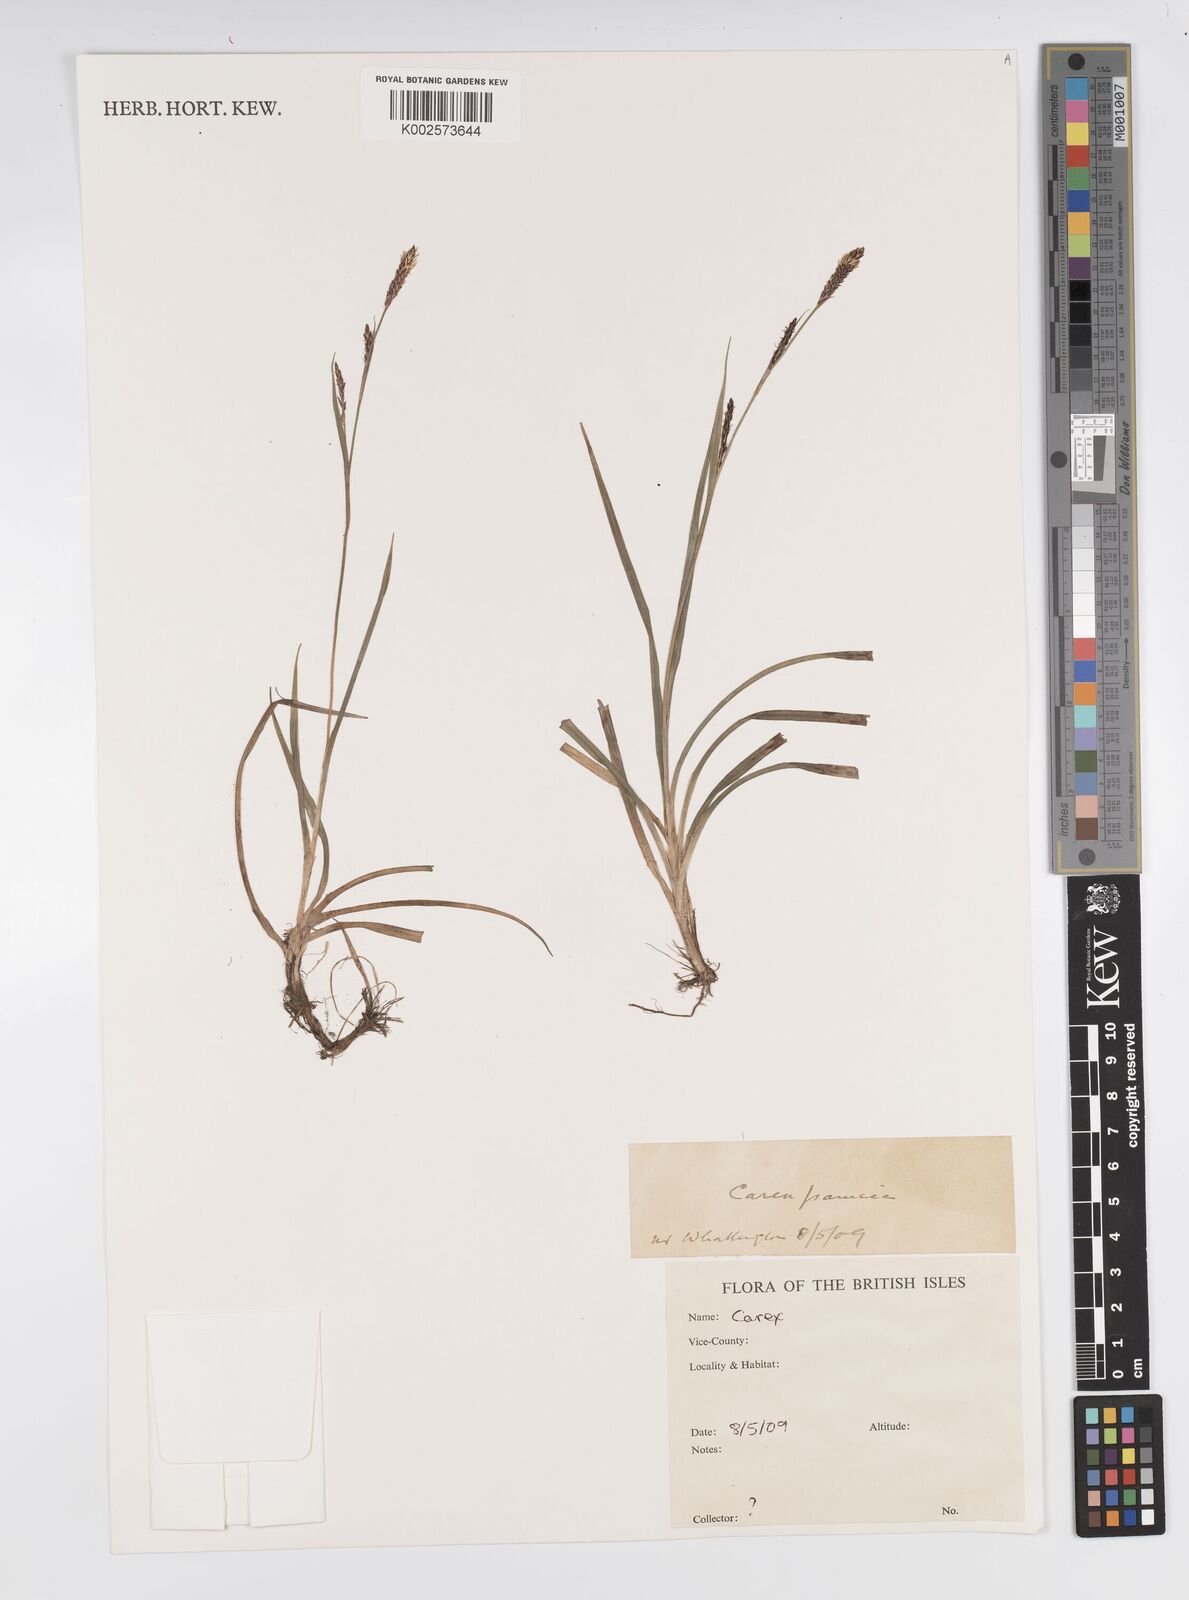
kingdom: Plantae
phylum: Tracheophyta
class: Liliopsida
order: Poales
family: Cyperaceae
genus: Carex
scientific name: Carex panicea
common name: Carnation sedge
